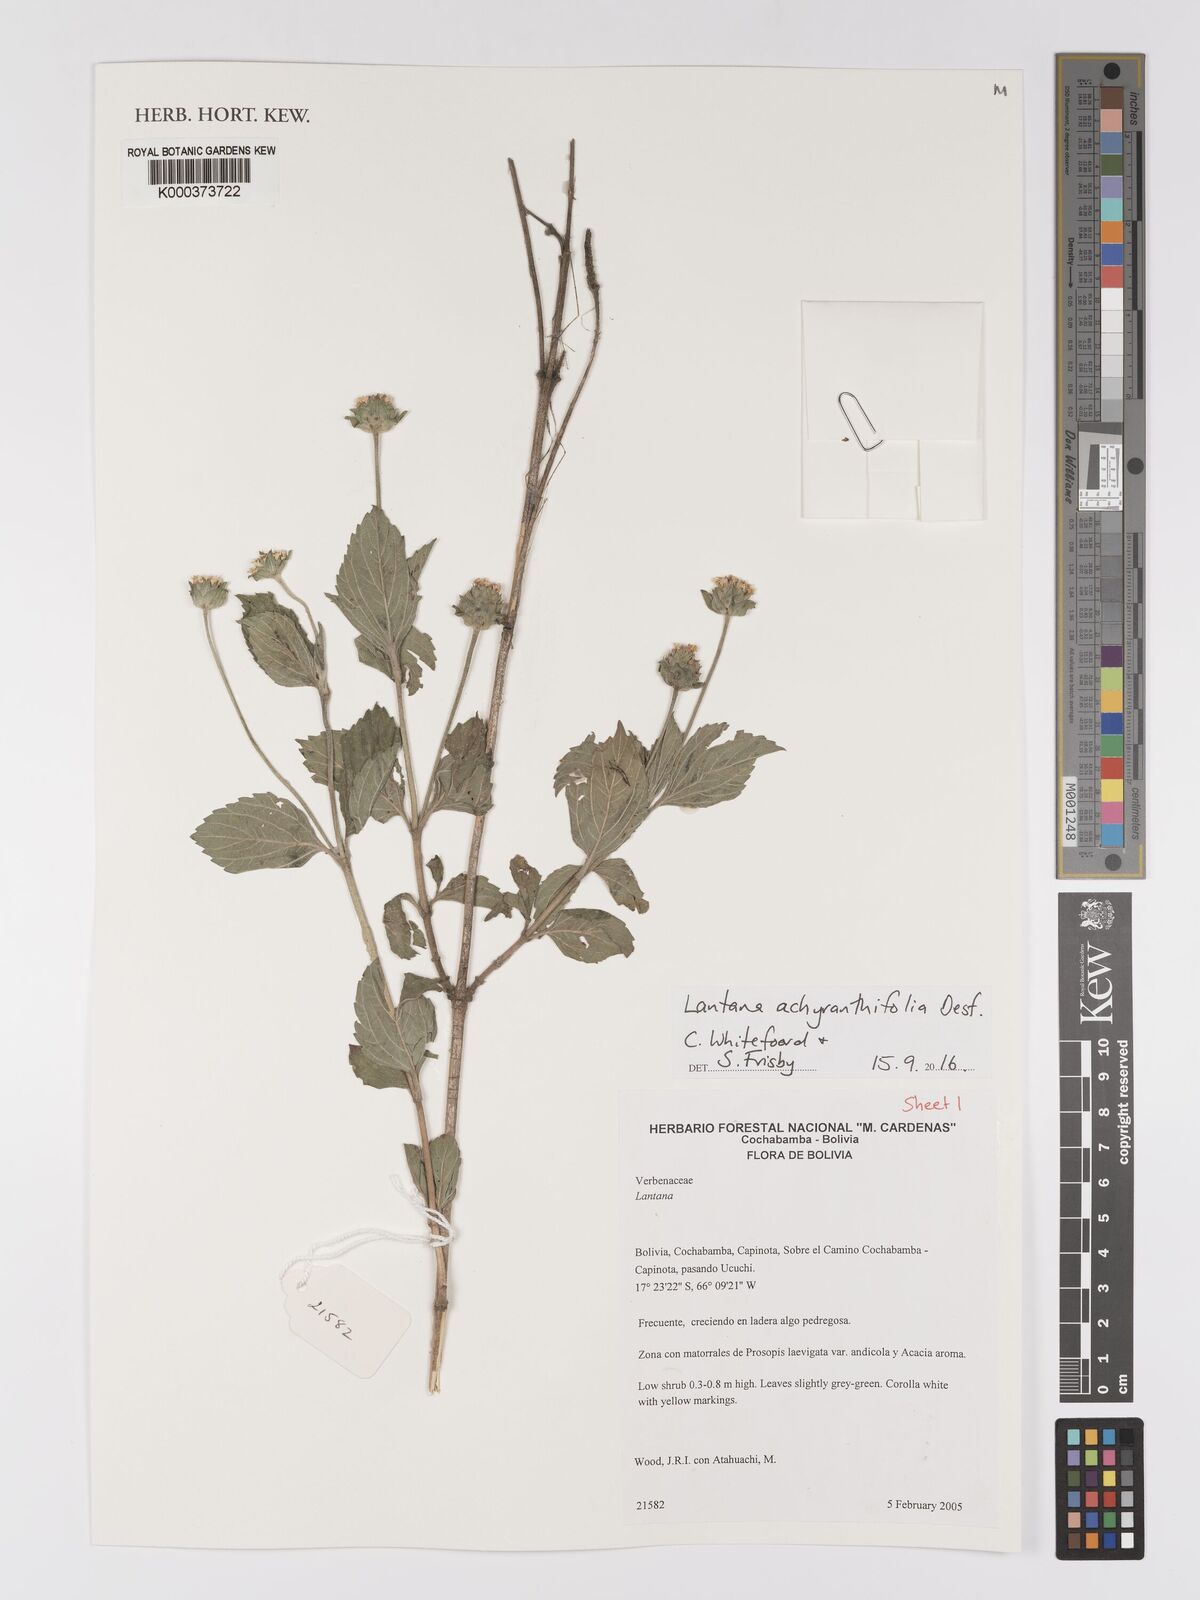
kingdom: Plantae
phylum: Tracheophyta
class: Magnoliopsida
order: Lamiales
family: Verbenaceae
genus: Lantana
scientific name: Lantana achyranthifolia
